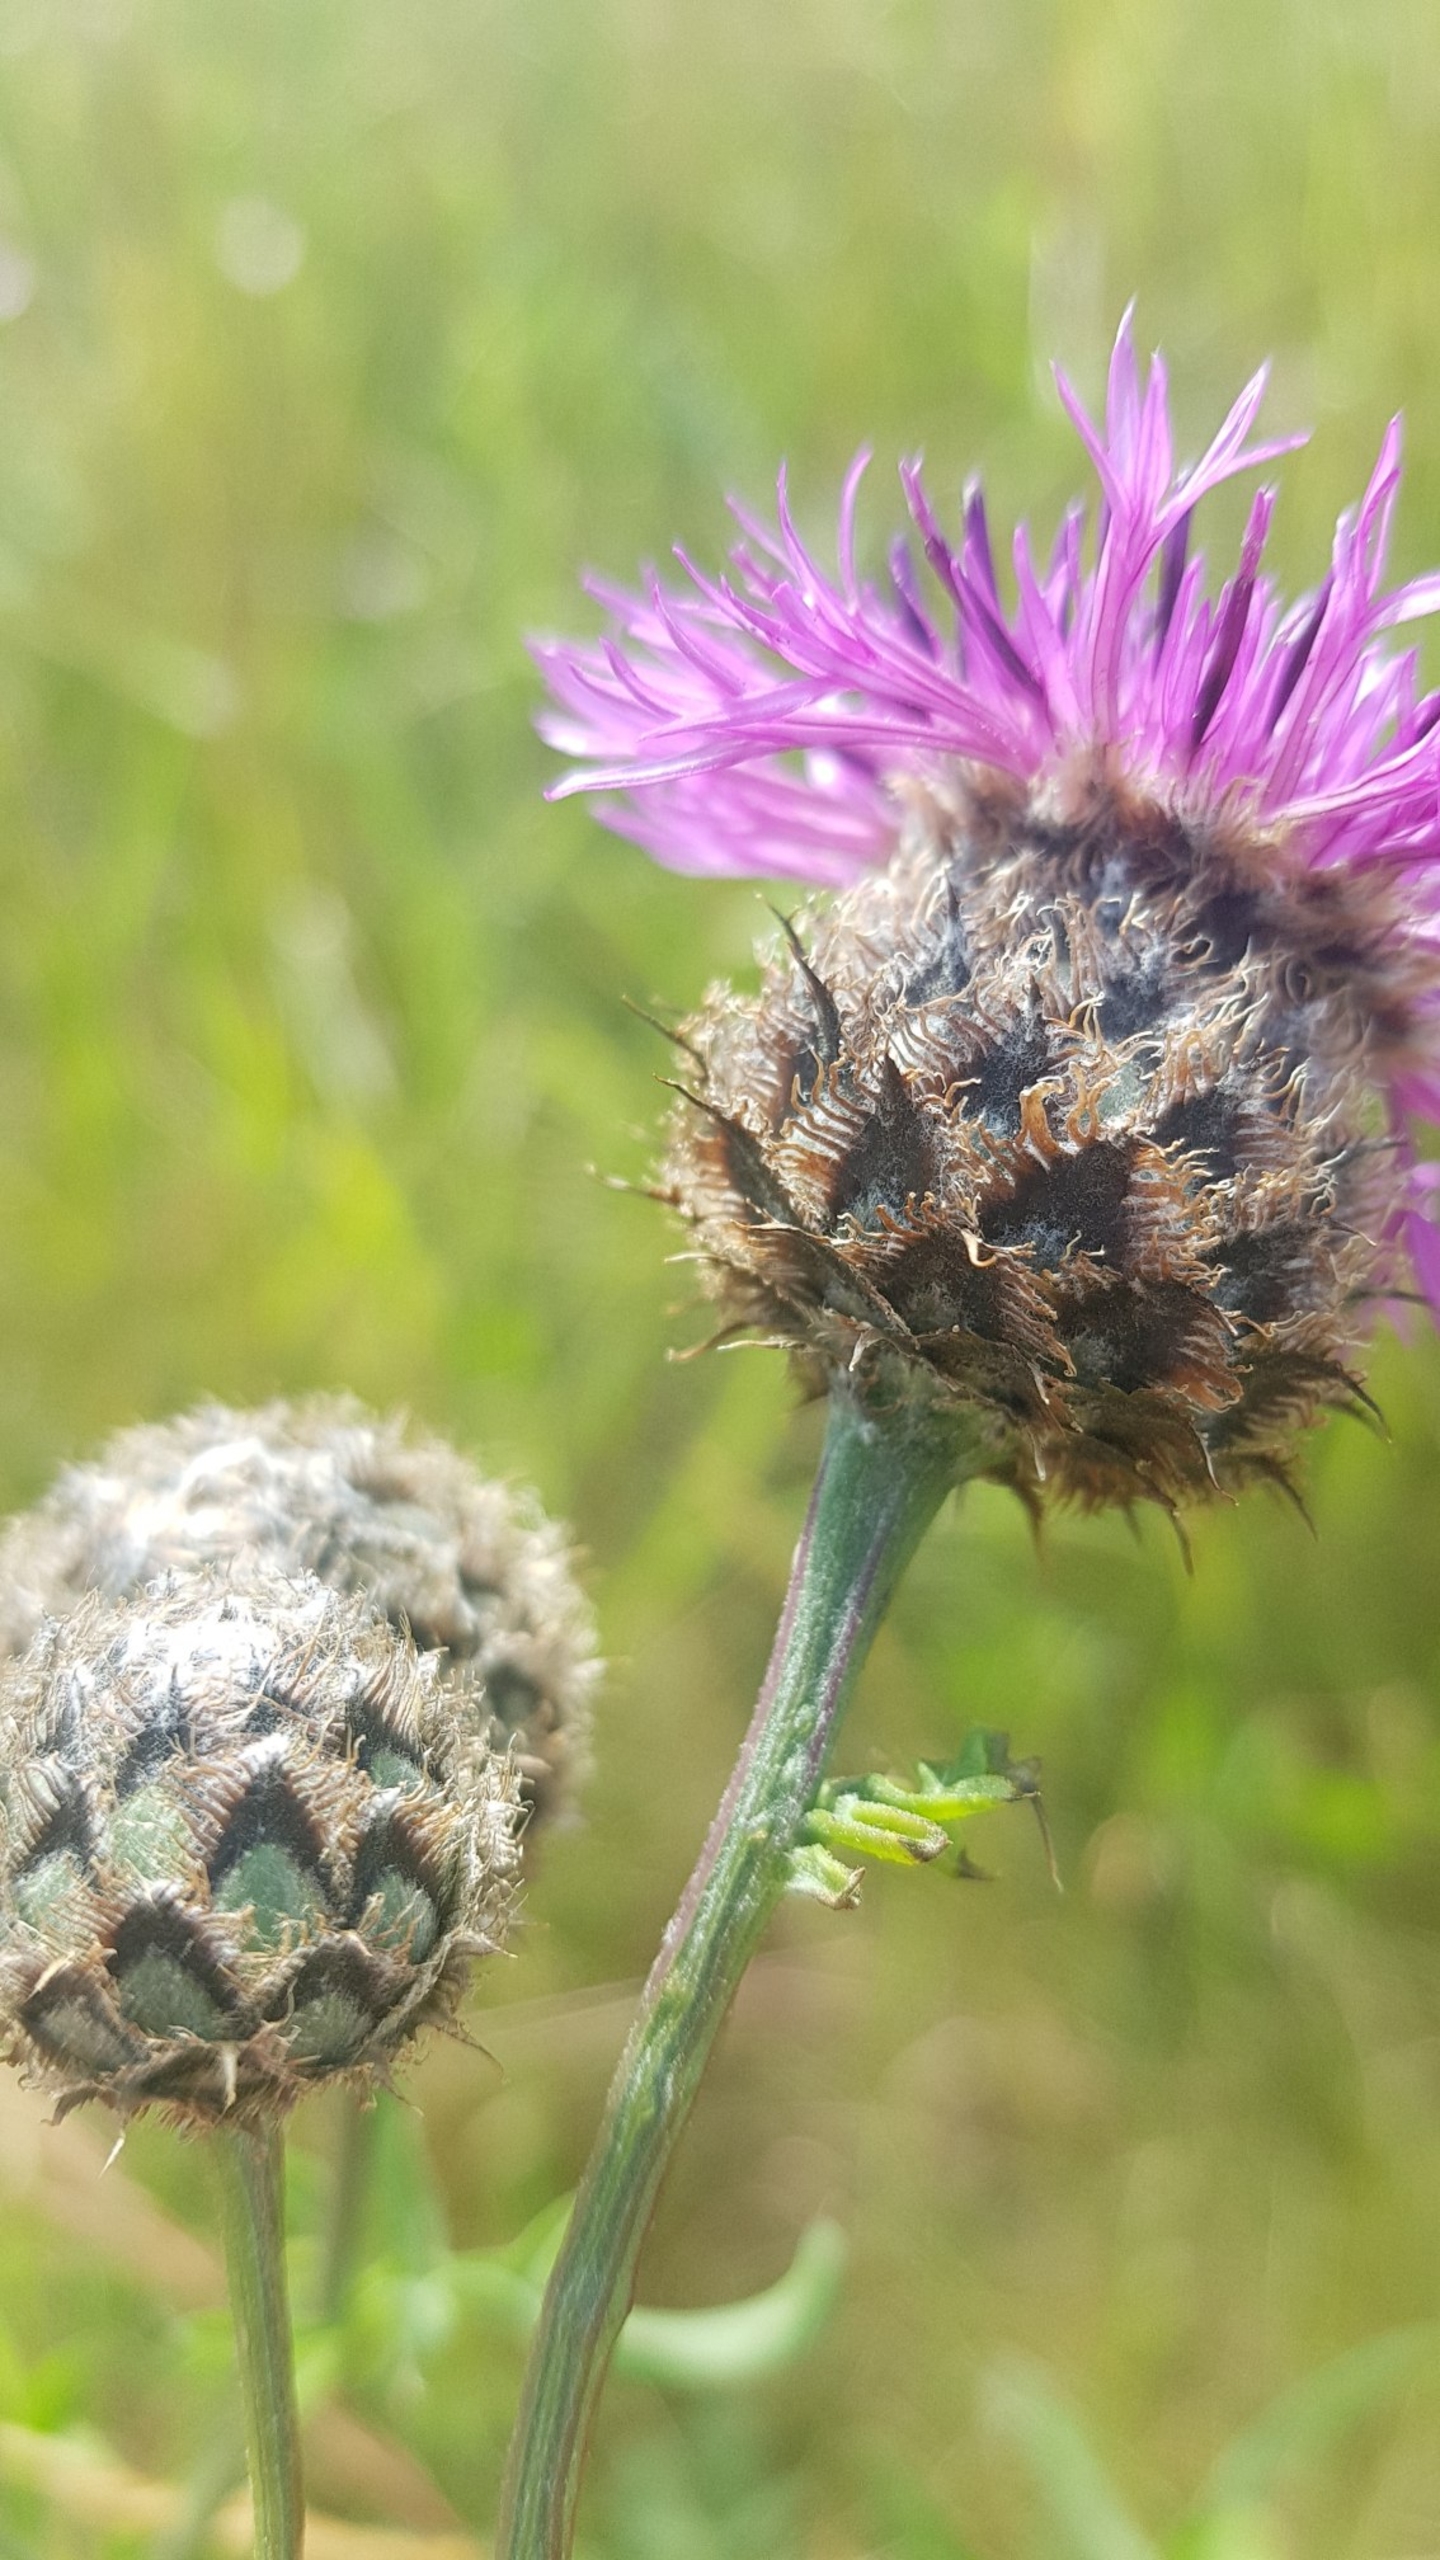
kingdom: Plantae
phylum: Tracheophyta
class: Magnoliopsida
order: Asterales
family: Asteraceae
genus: Centaurea
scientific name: Centaurea scabiosa
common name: Stor knopurt
